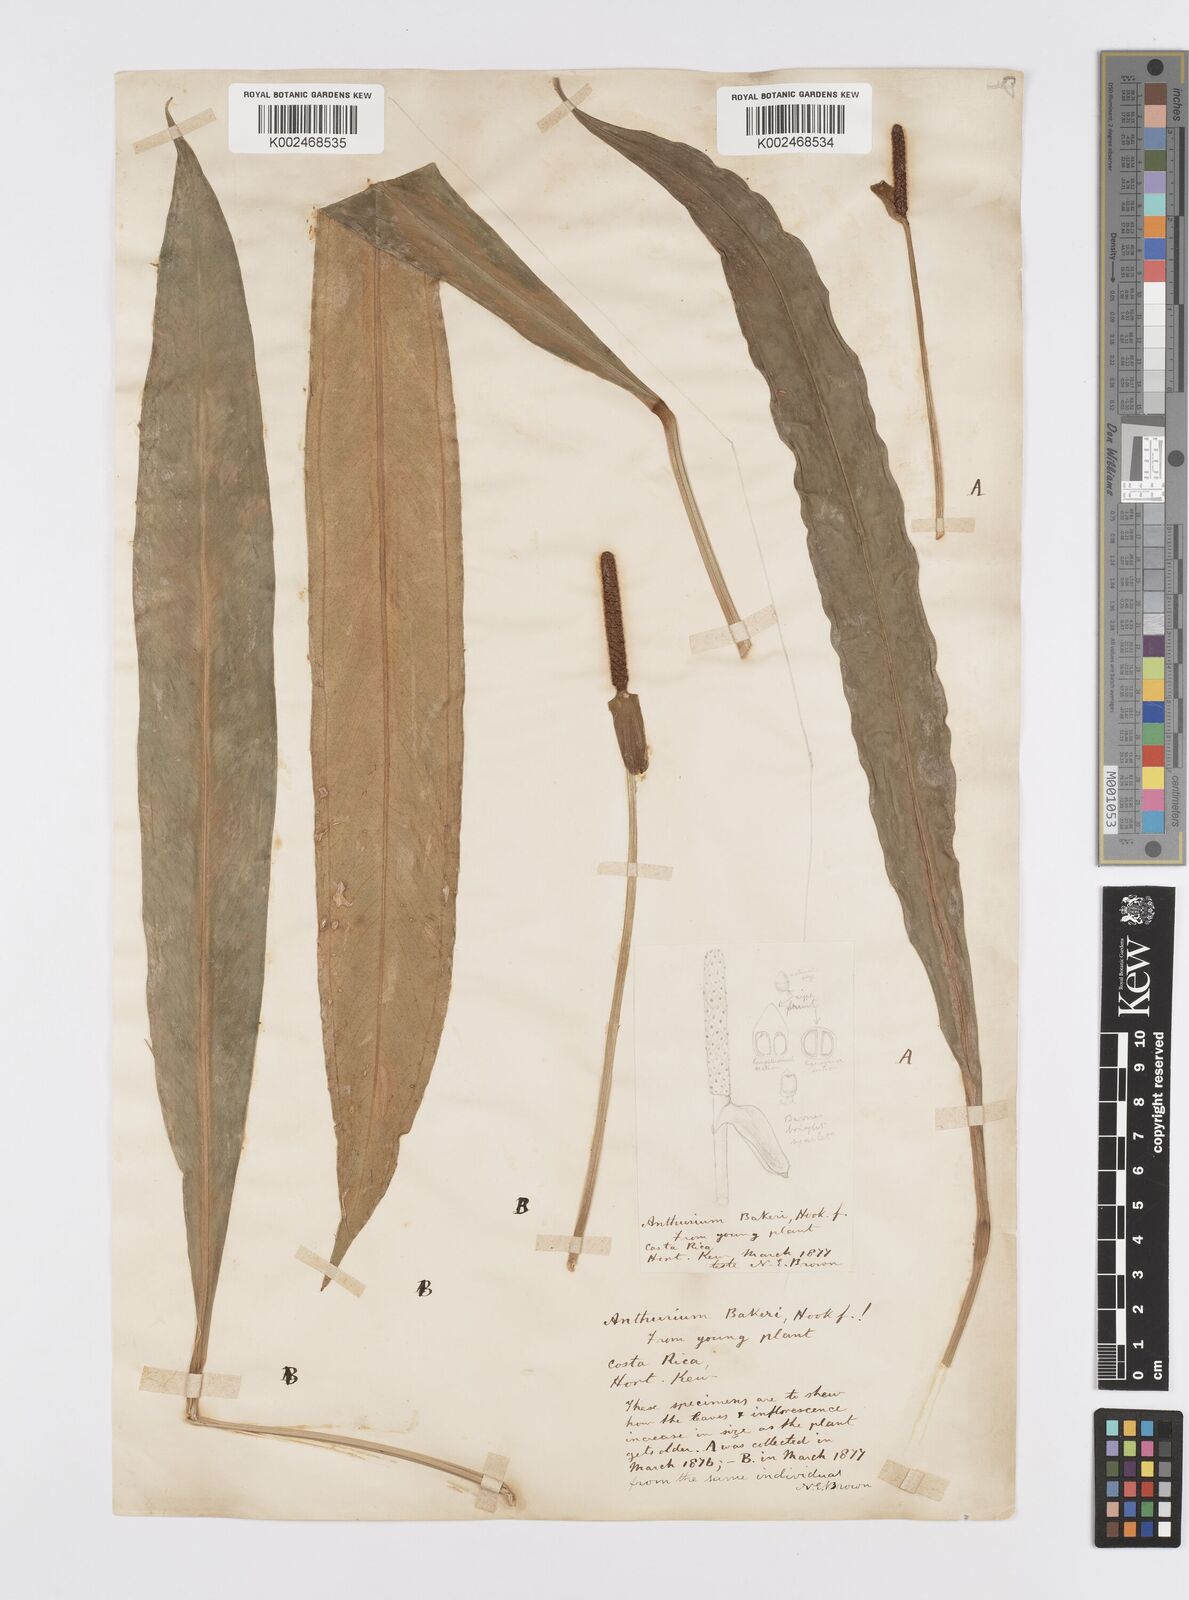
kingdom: Plantae
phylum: Tracheophyta
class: Liliopsida
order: Alismatales
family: Araceae
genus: Anthurium
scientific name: Anthurium bakeri
